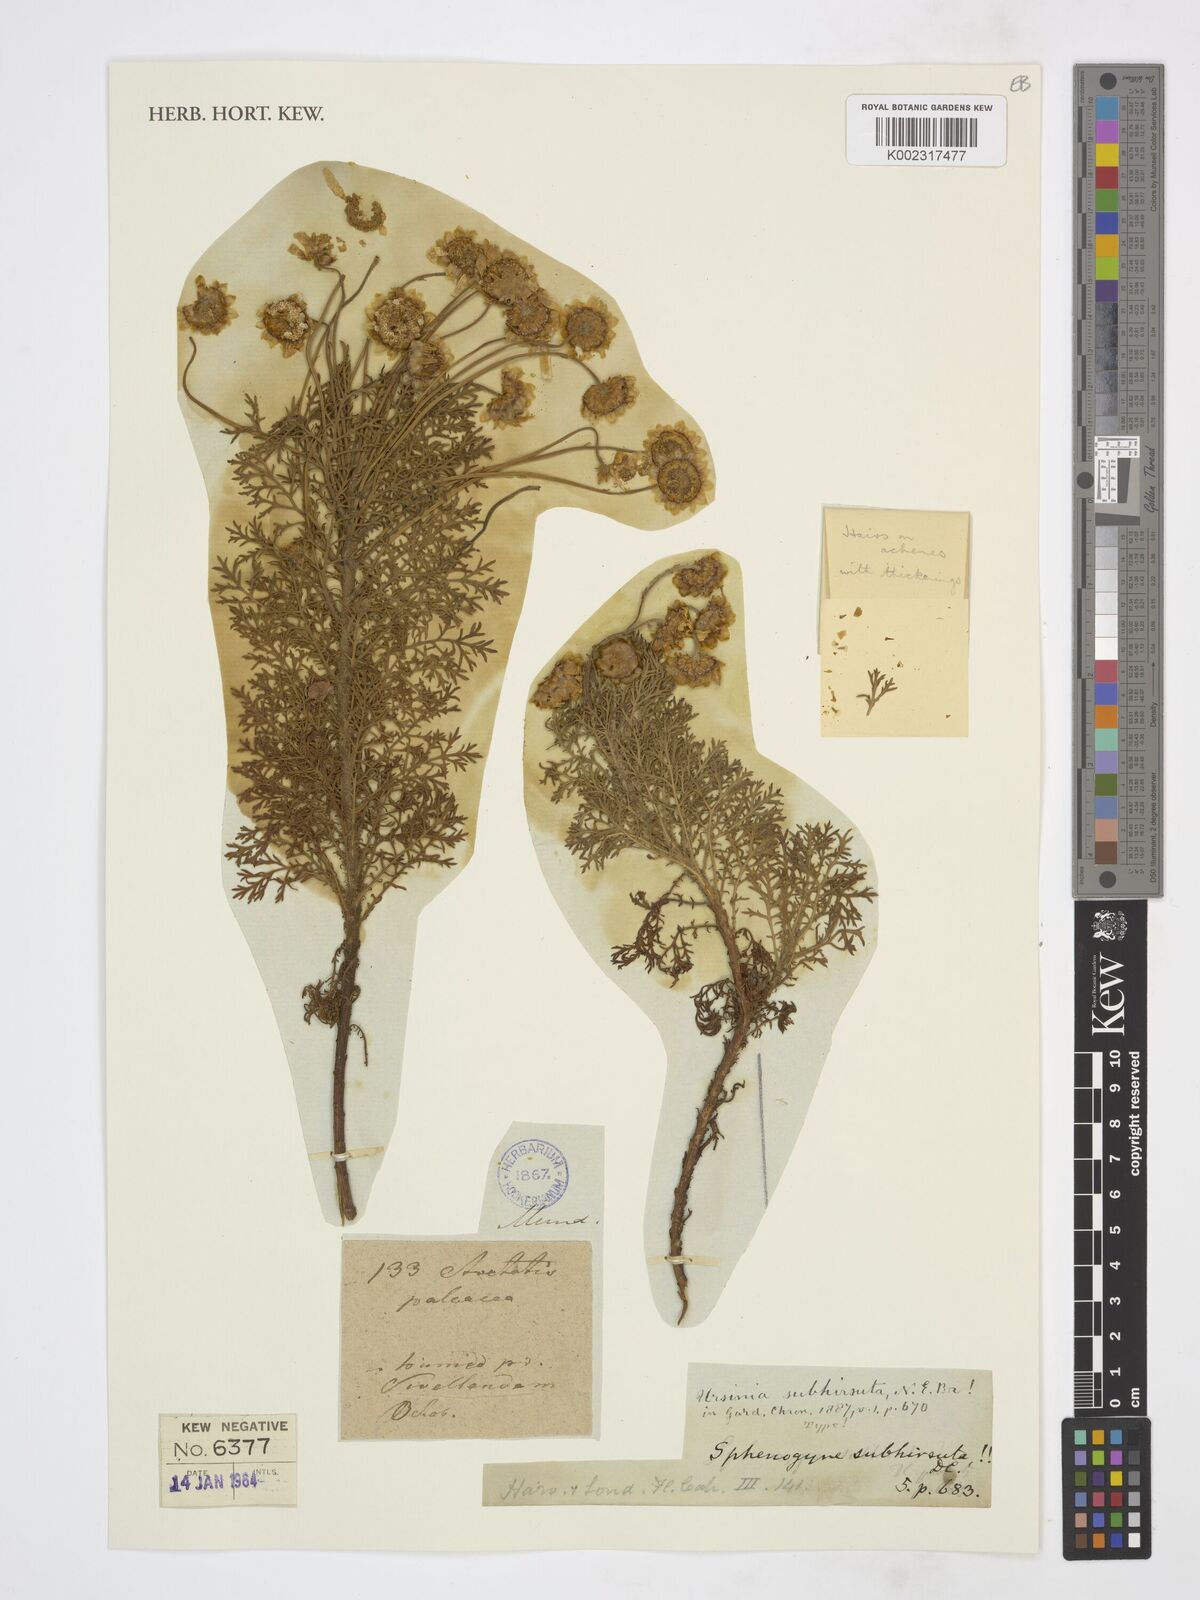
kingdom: Plantae
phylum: Tracheophyta
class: Magnoliopsida
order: Asterales
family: Asteraceae
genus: Ursinia
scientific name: Ursinia scariosa
